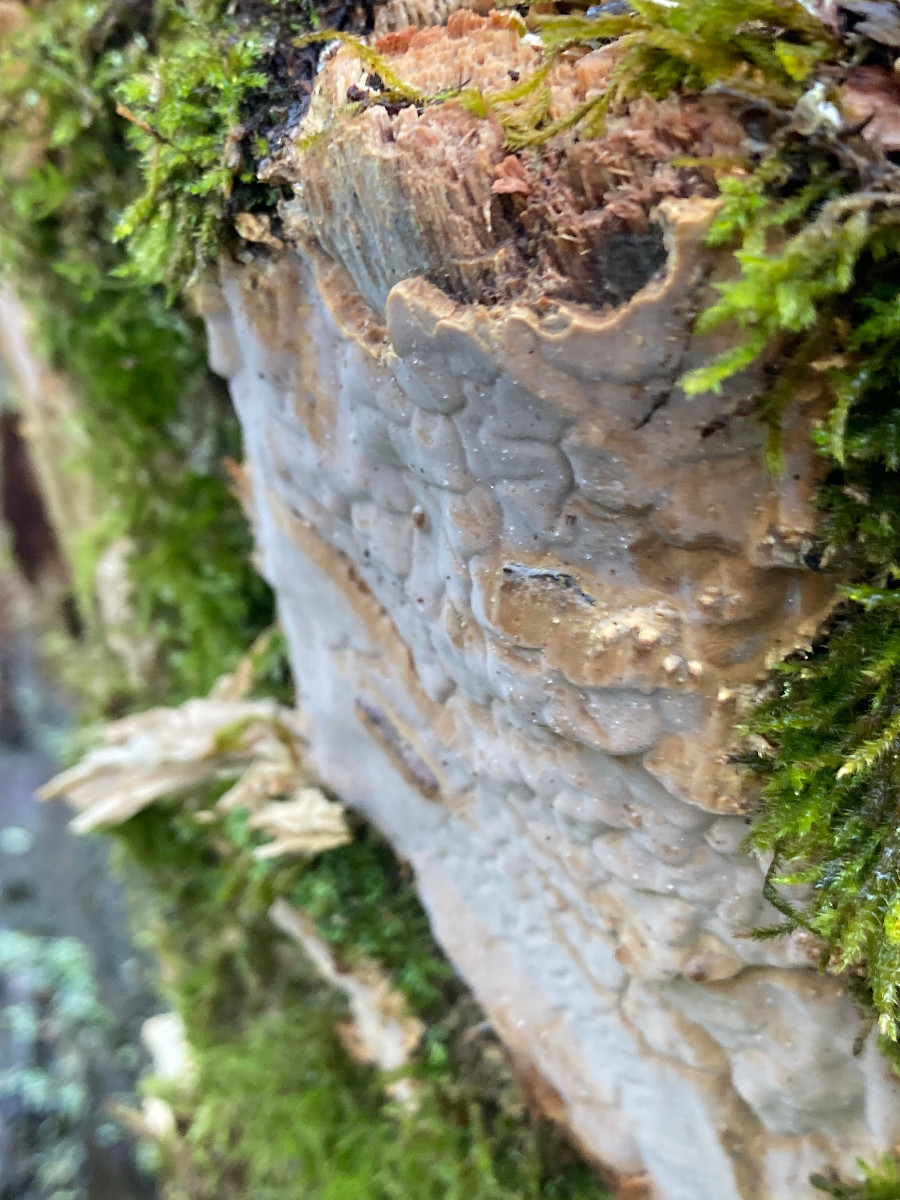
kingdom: Fungi
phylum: Basidiomycota
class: Agaricomycetes
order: Russulales
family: Peniophoraceae
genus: Scytinostroma
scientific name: Scytinostroma hemidichophyticum
